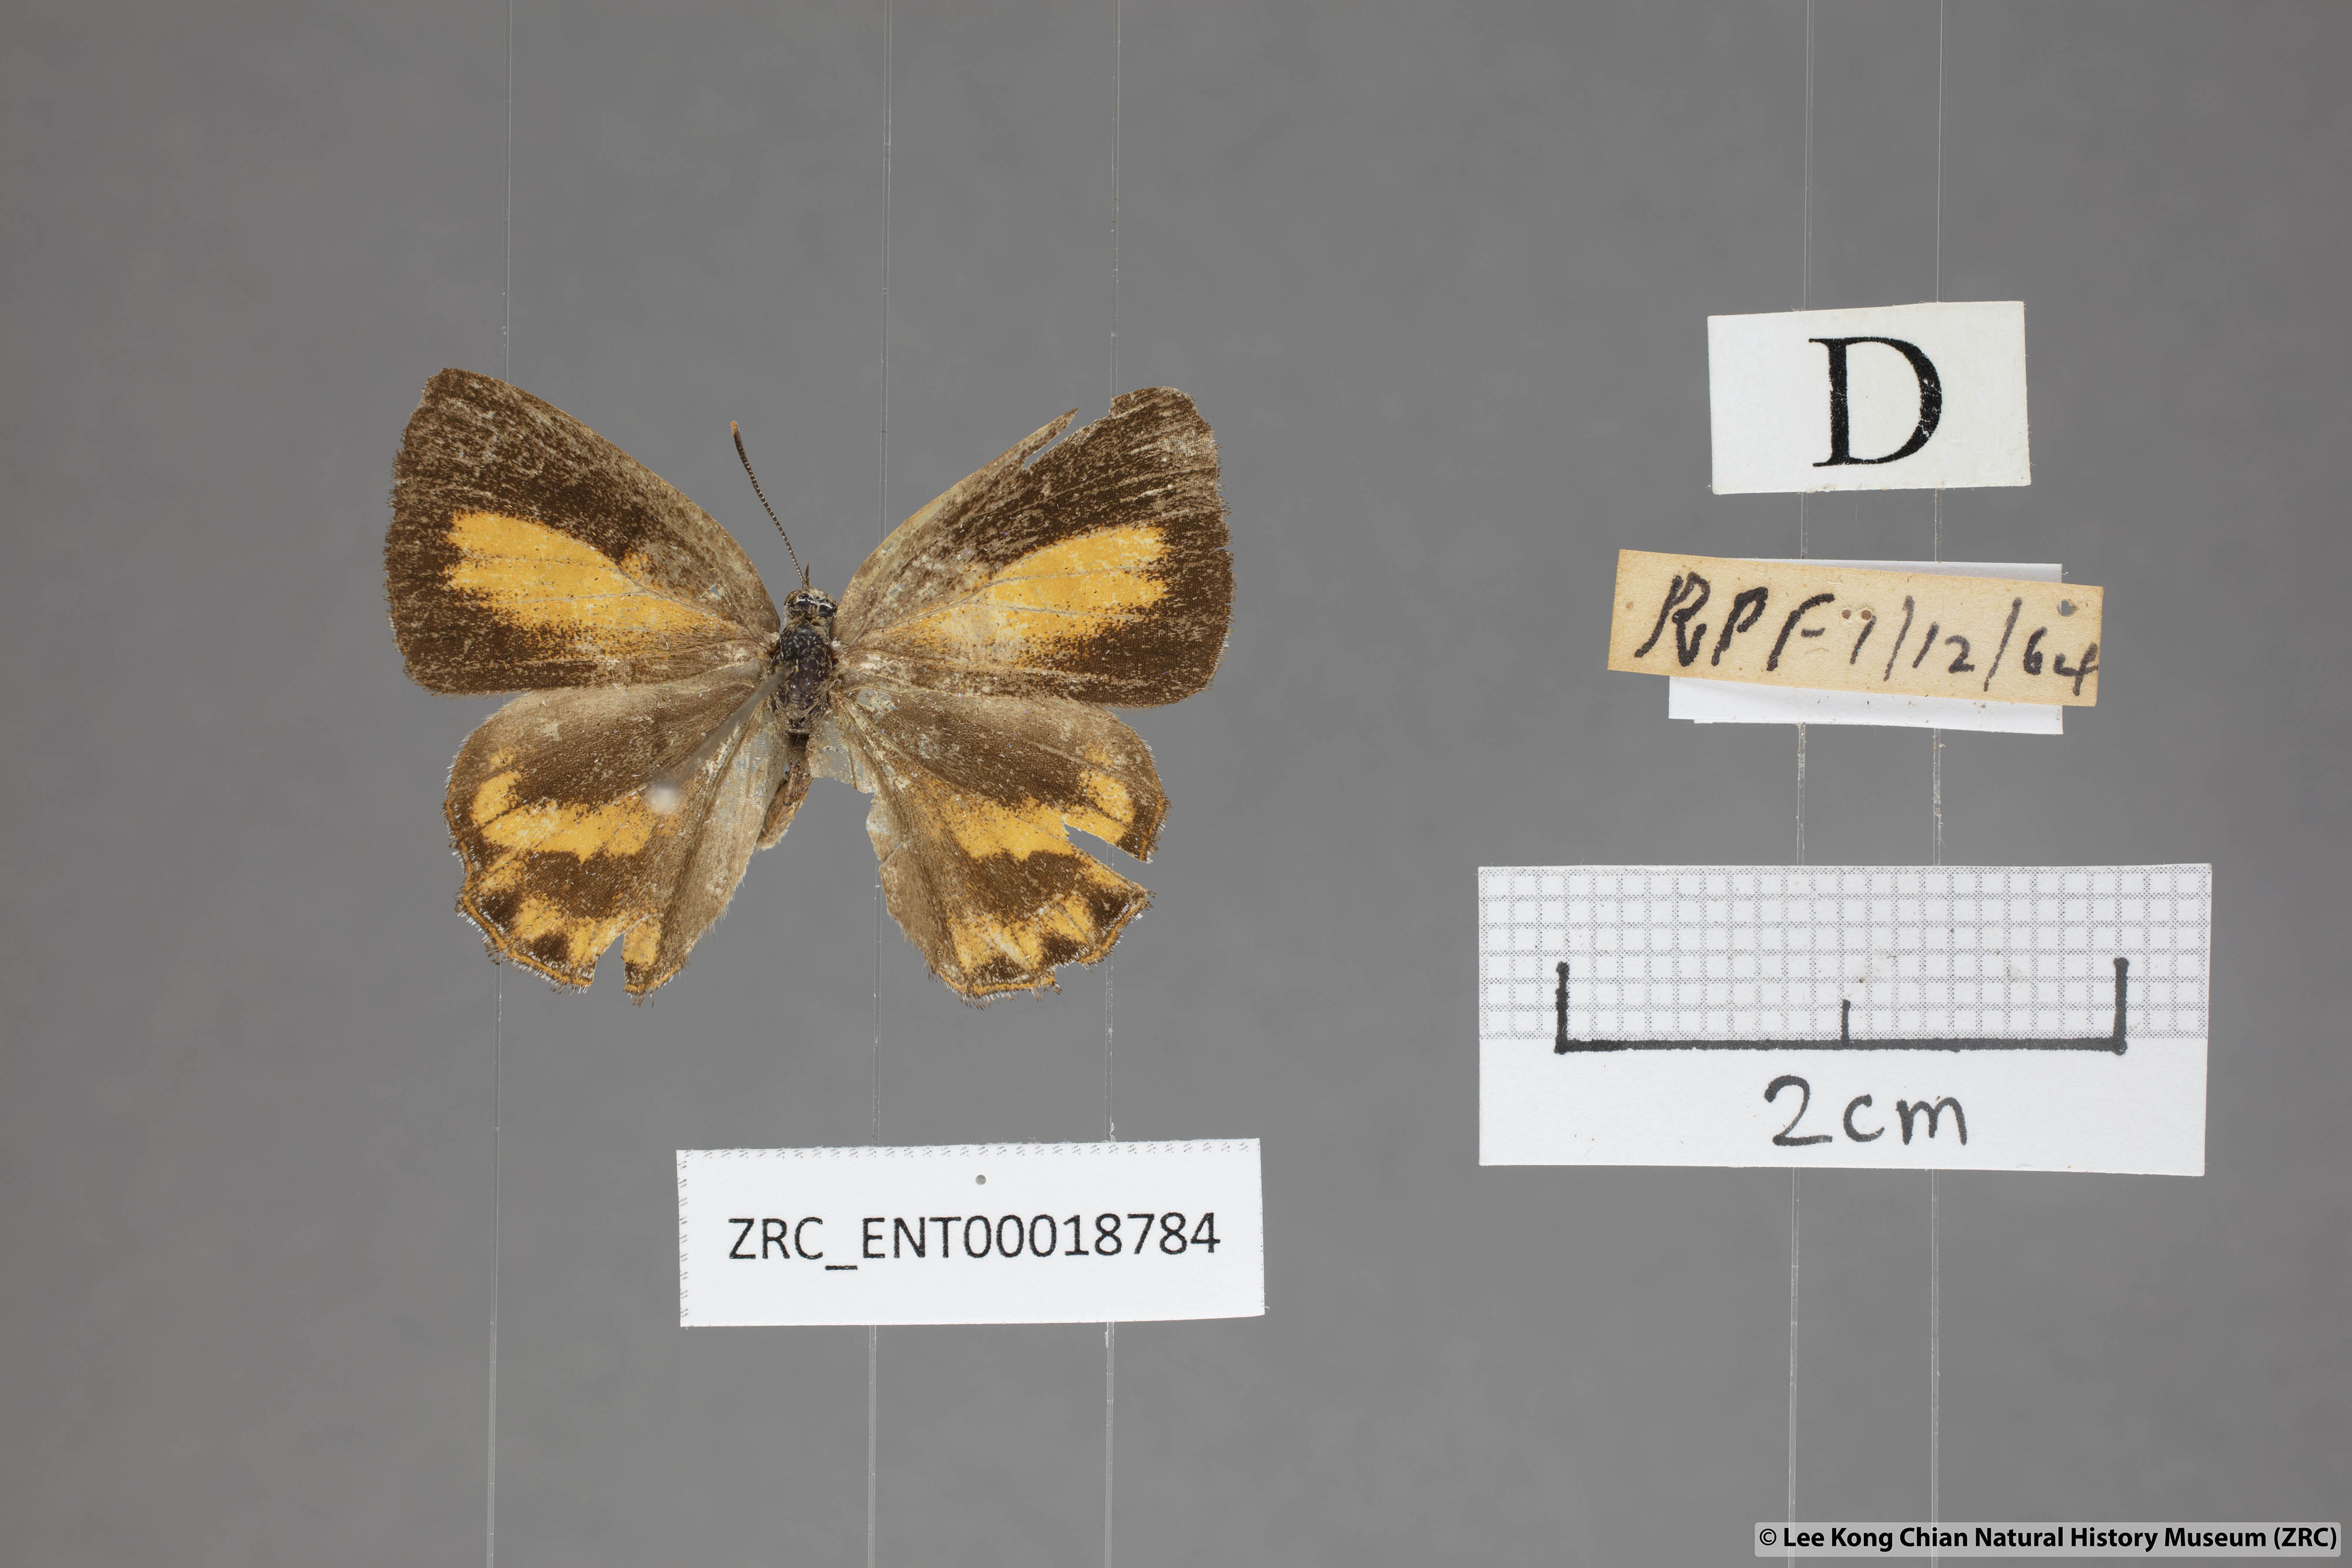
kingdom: Animalia
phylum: Arthropoda
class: Insecta
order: Lepidoptera
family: Lycaenidae
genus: Poritia
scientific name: Poritia erycinoides
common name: Blue gem
